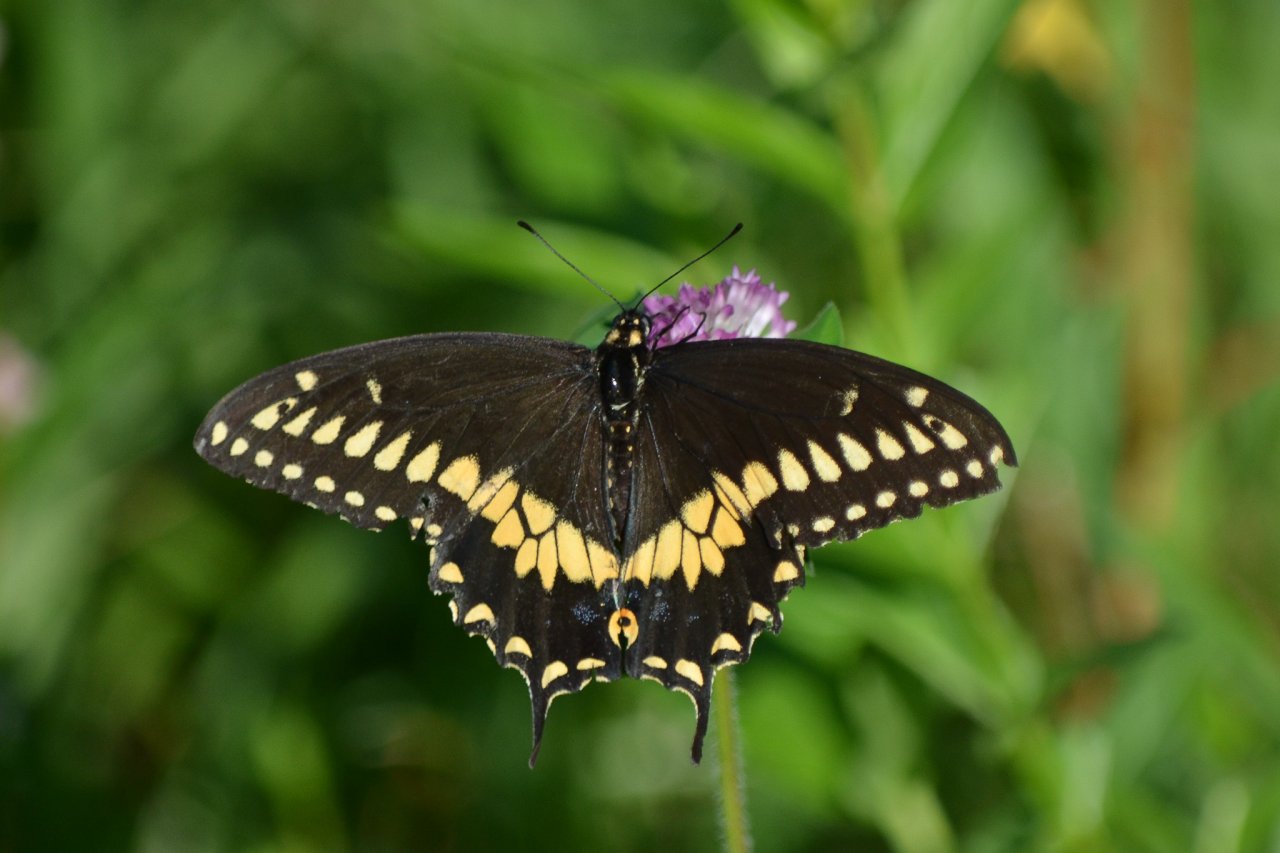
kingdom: Animalia
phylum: Arthropoda
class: Insecta
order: Lepidoptera
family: Papilionidae
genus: Papilio
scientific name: Papilio polyxenes
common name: Black Swallowtail
